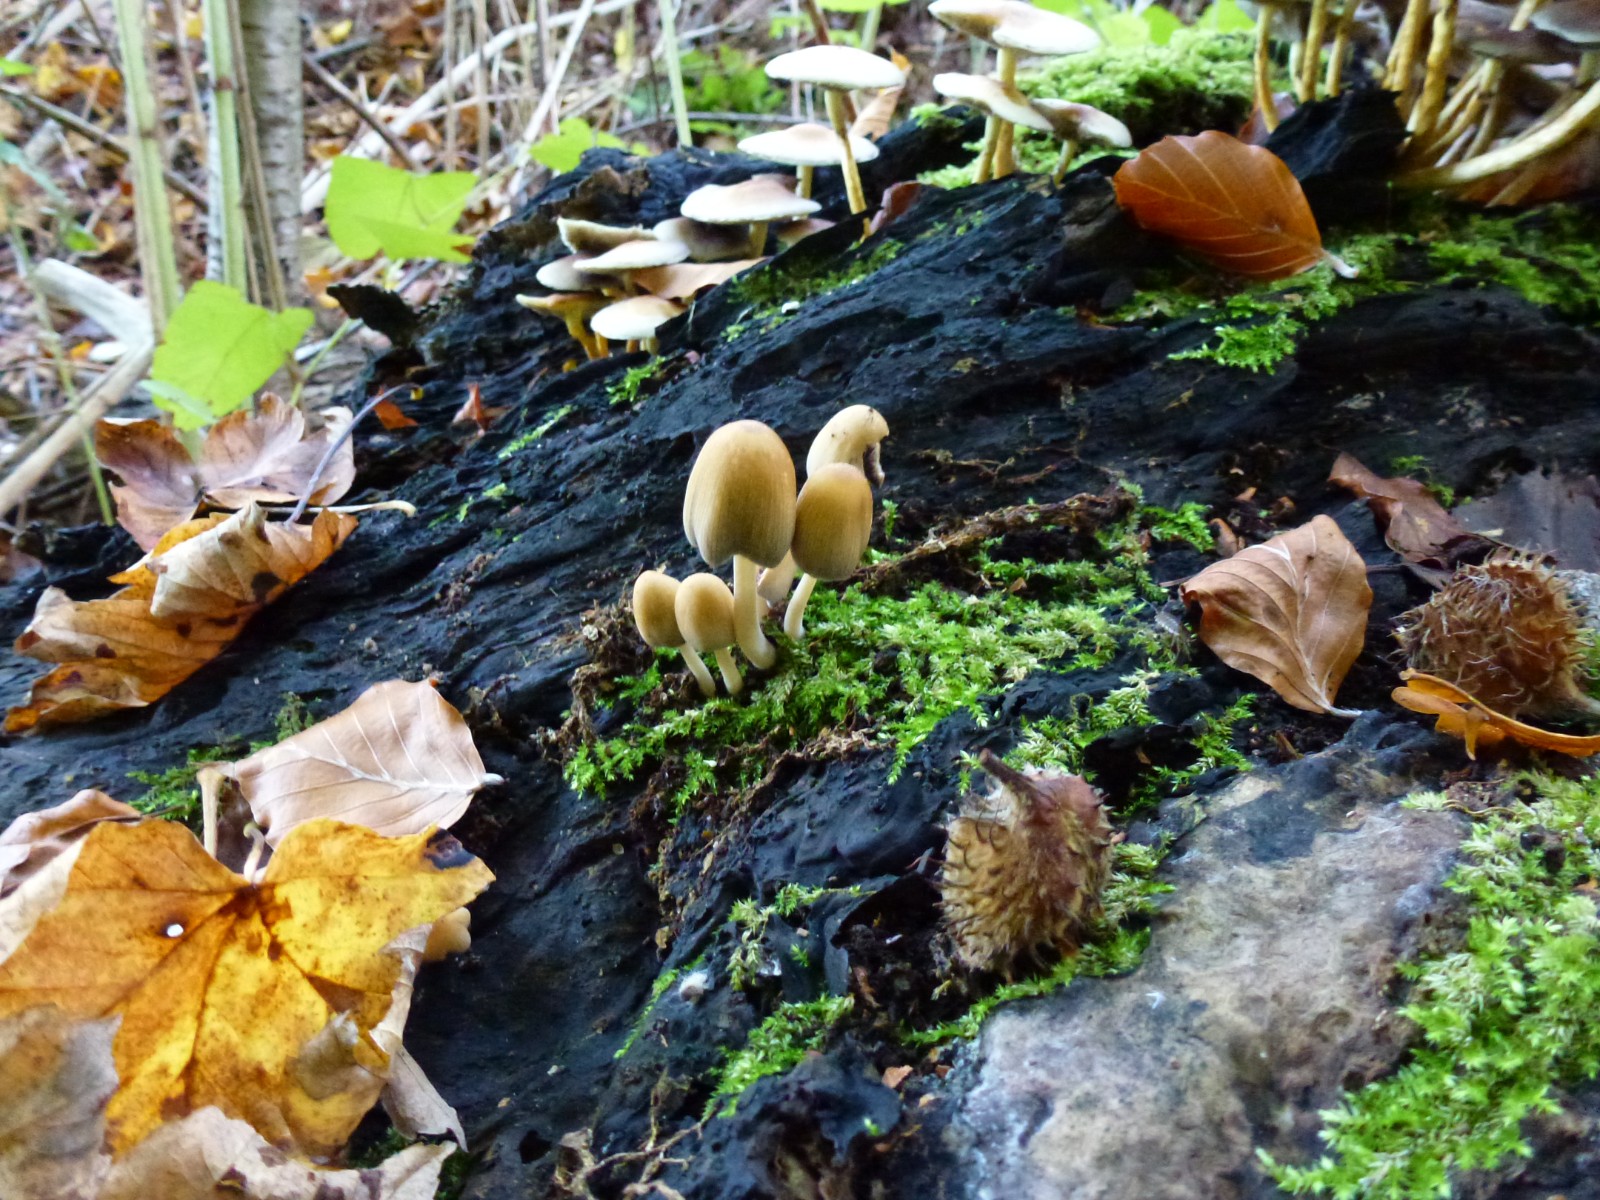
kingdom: Fungi
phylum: Basidiomycota
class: Agaricomycetes
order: Agaricales
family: Psathyrellaceae
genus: Coprinellus
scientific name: Coprinellus
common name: blækhat
